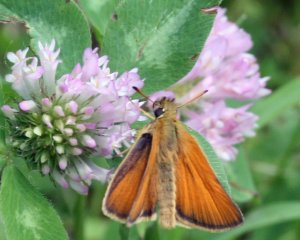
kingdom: Animalia
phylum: Arthropoda
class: Insecta
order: Lepidoptera
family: Hesperiidae
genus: Thymelicus
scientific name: Thymelicus lineola
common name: European Skipper
